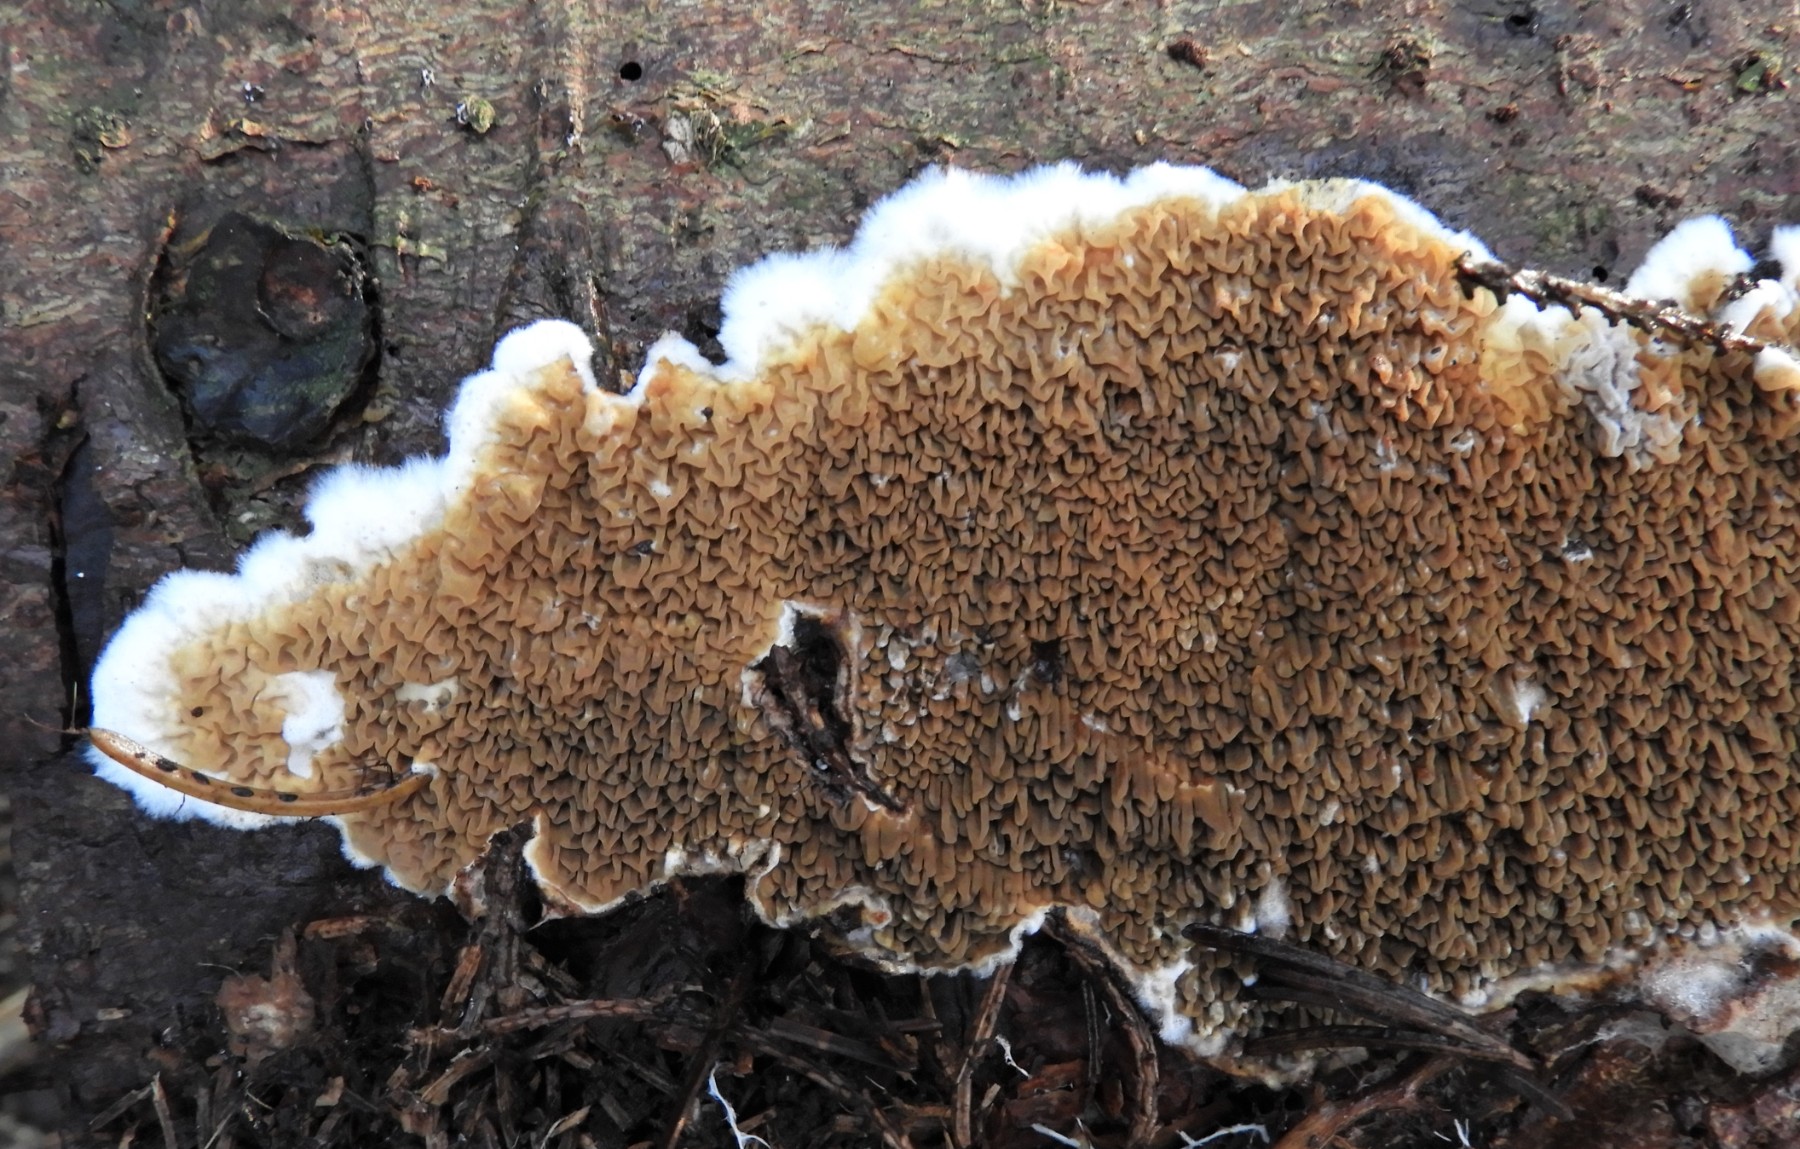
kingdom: Fungi
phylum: Basidiomycota
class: Agaricomycetes
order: Boletales
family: Serpulaceae
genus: Serpula
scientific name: Serpula himantioides
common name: tyndkødet hussvamp
